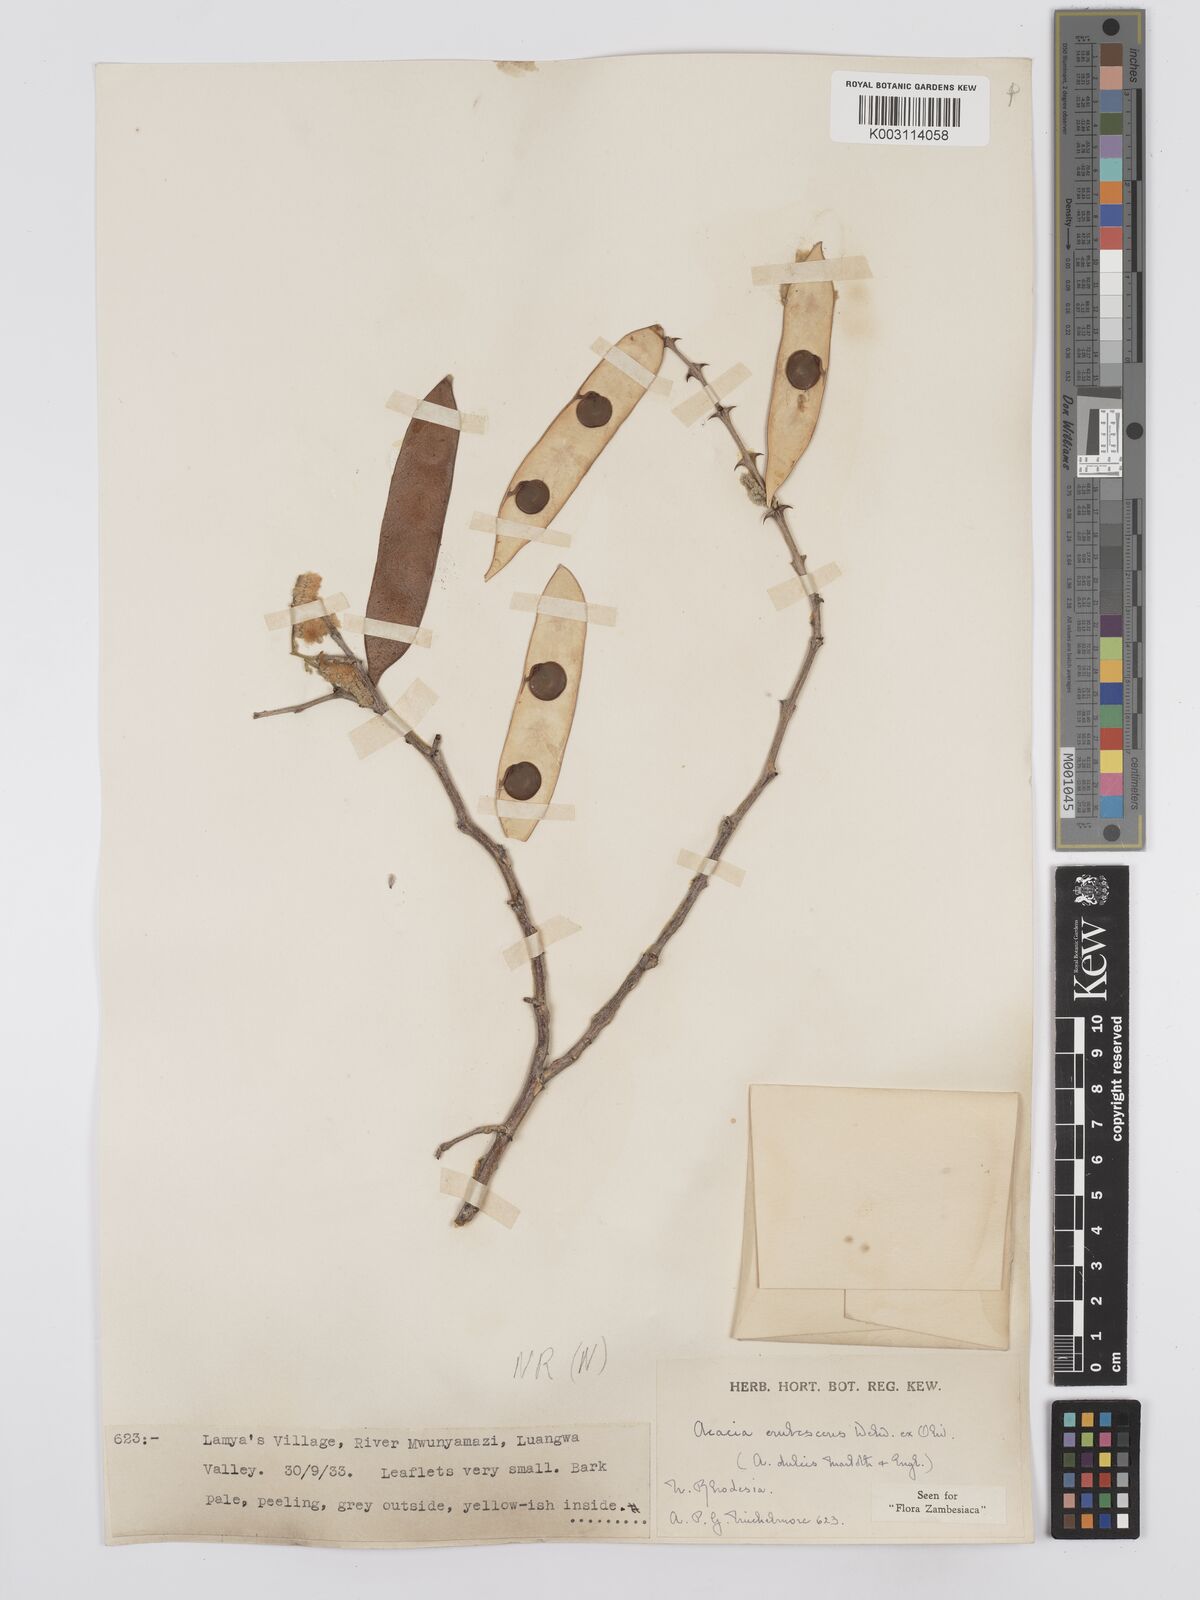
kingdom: Plantae
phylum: Tracheophyta
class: Magnoliopsida
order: Fabales
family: Fabaceae
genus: Senegalia
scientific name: Senegalia erubescens
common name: Bluethorn
